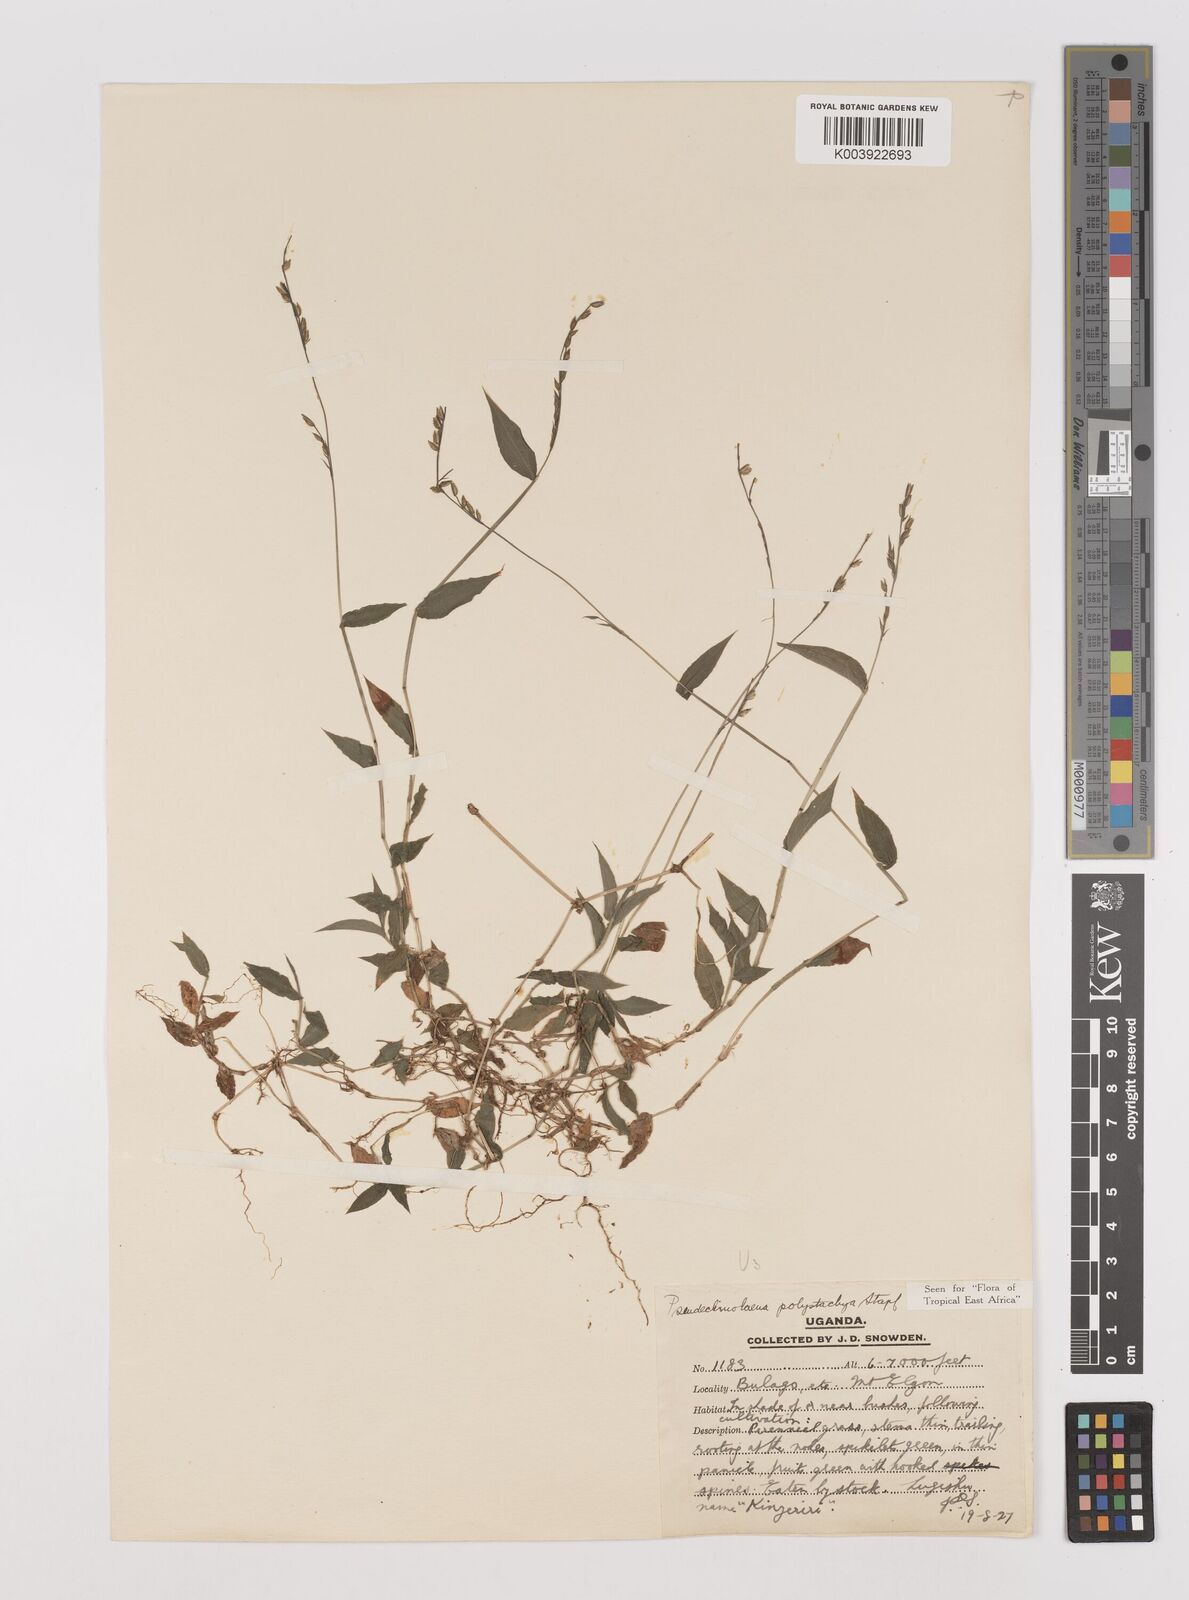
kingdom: Plantae
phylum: Tracheophyta
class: Liliopsida
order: Poales
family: Poaceae
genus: Pseudechinolaena
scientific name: Pseudechinolaena polystachya
